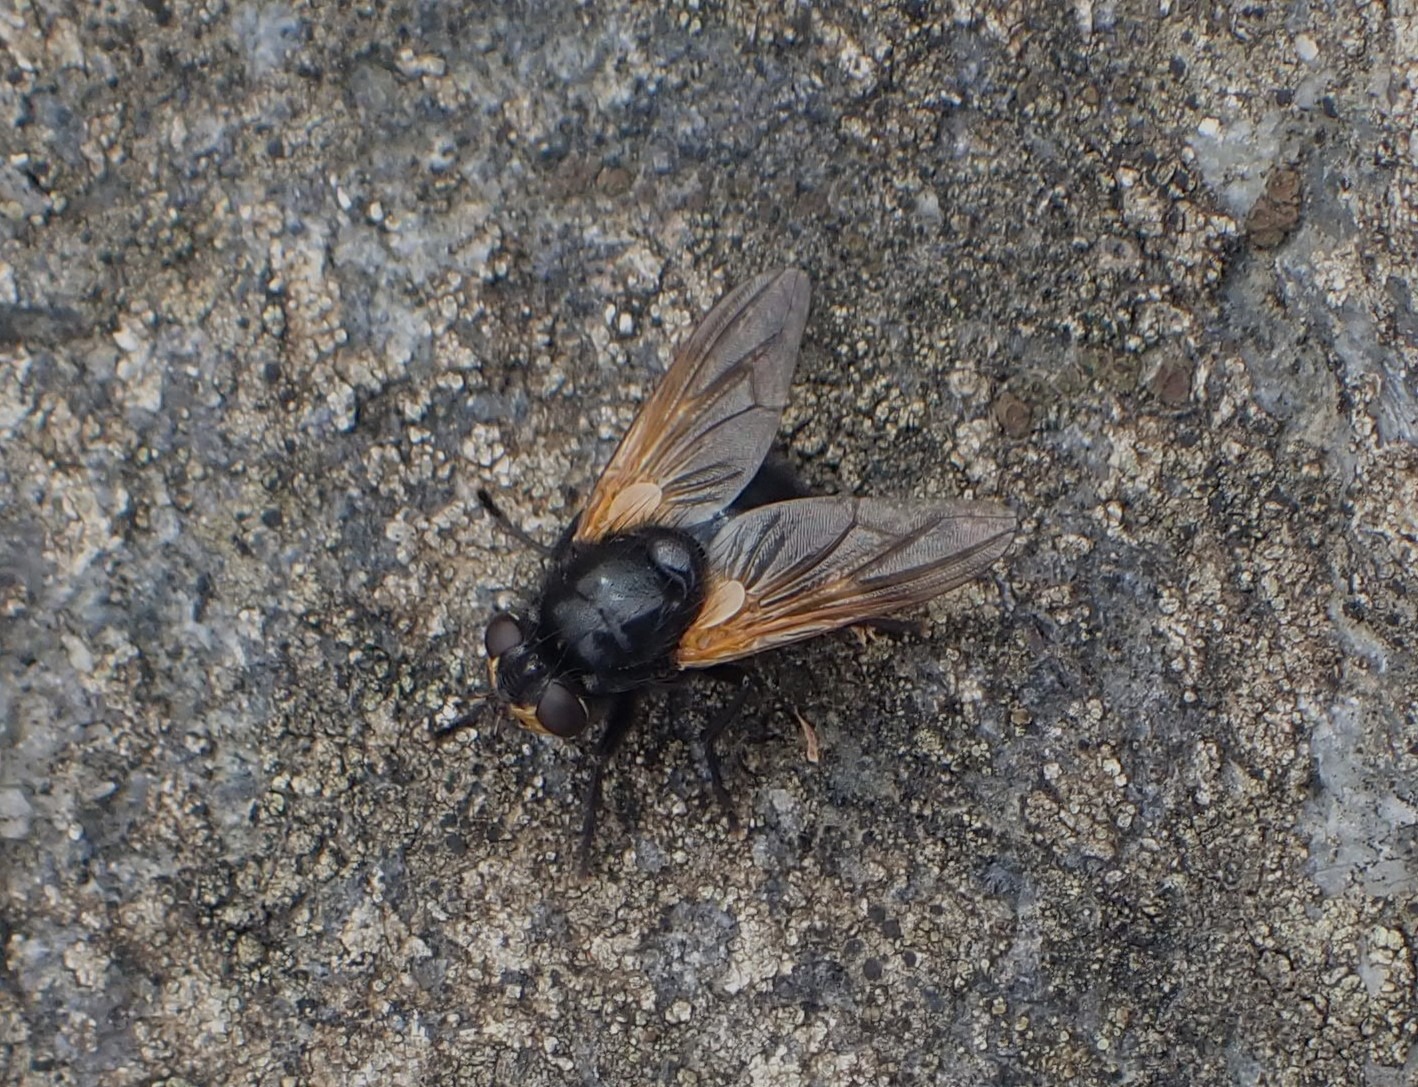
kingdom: Animalia
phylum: Arthropoda
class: Insecta
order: Diptera
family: Muscidae
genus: Mesembrina
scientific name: Mesembrina meridiana
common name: Gulvinget flue
